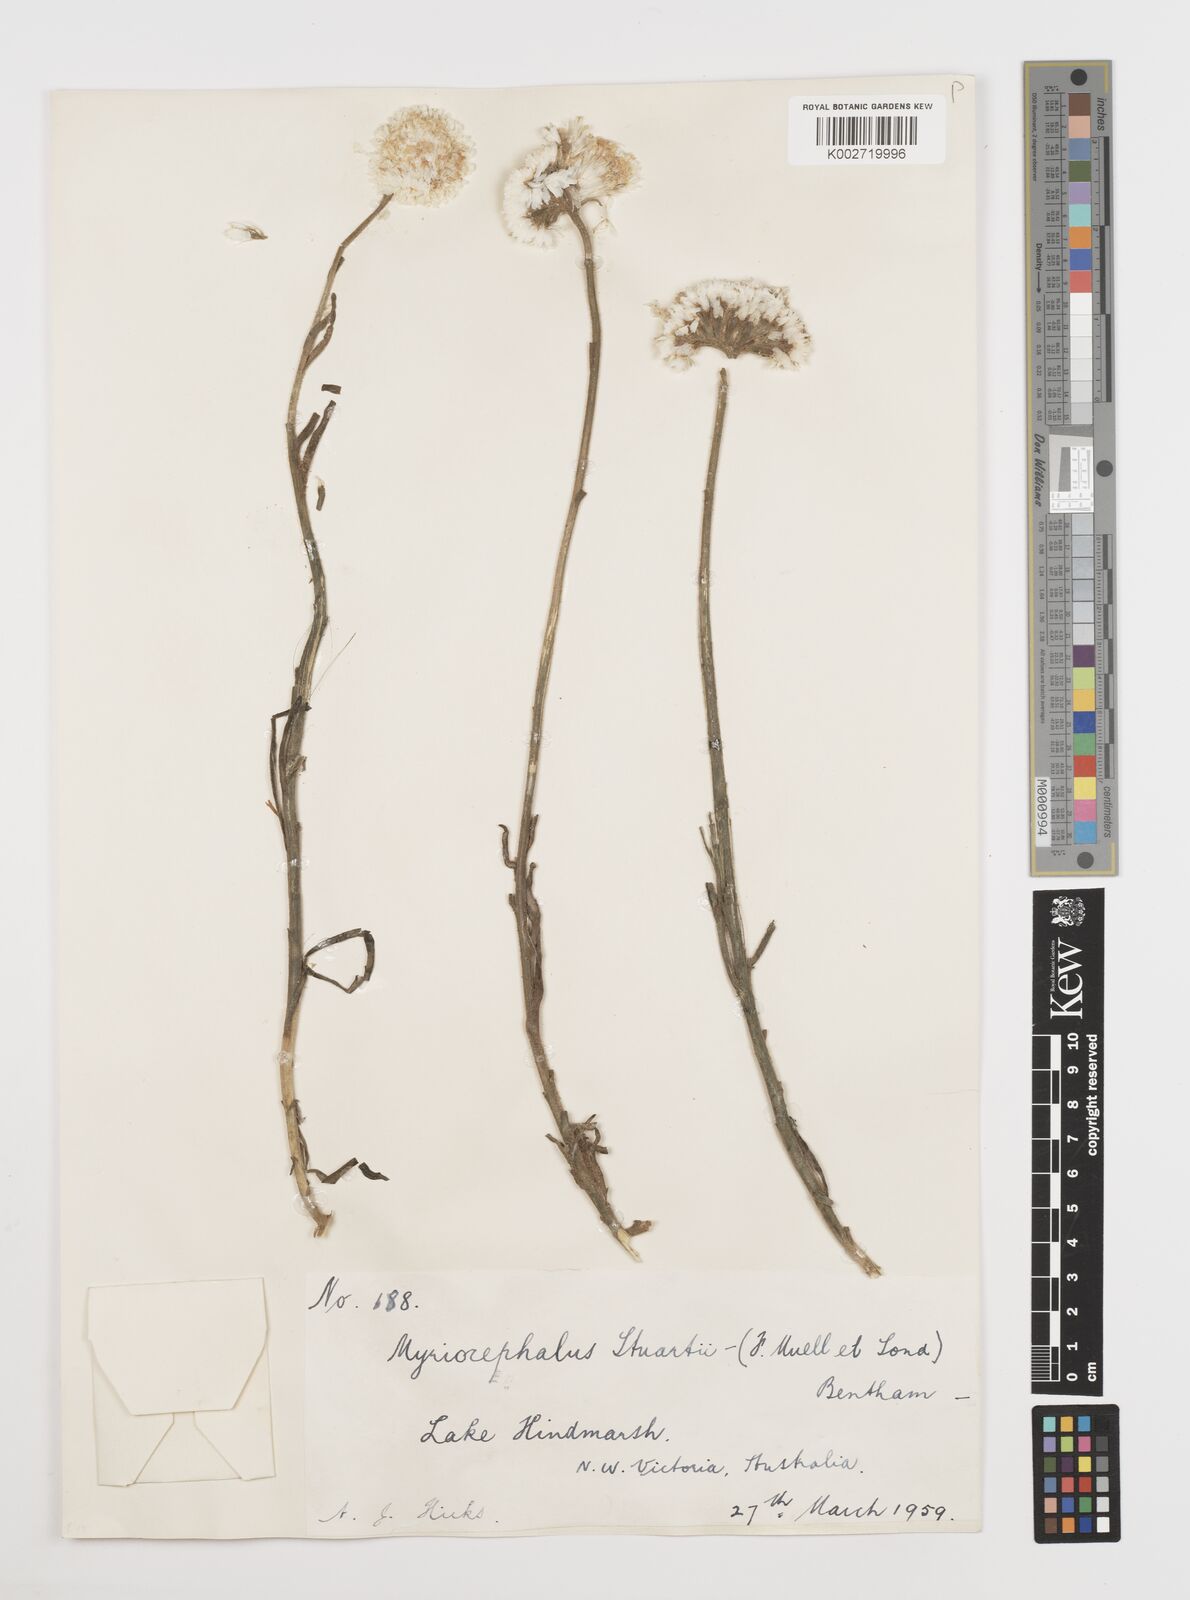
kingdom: Plantae
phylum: Tracheophyta
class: Magnoliopsida
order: Asterales
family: Asteraceae
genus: Polycalymma
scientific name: Polycalymma stuartii
